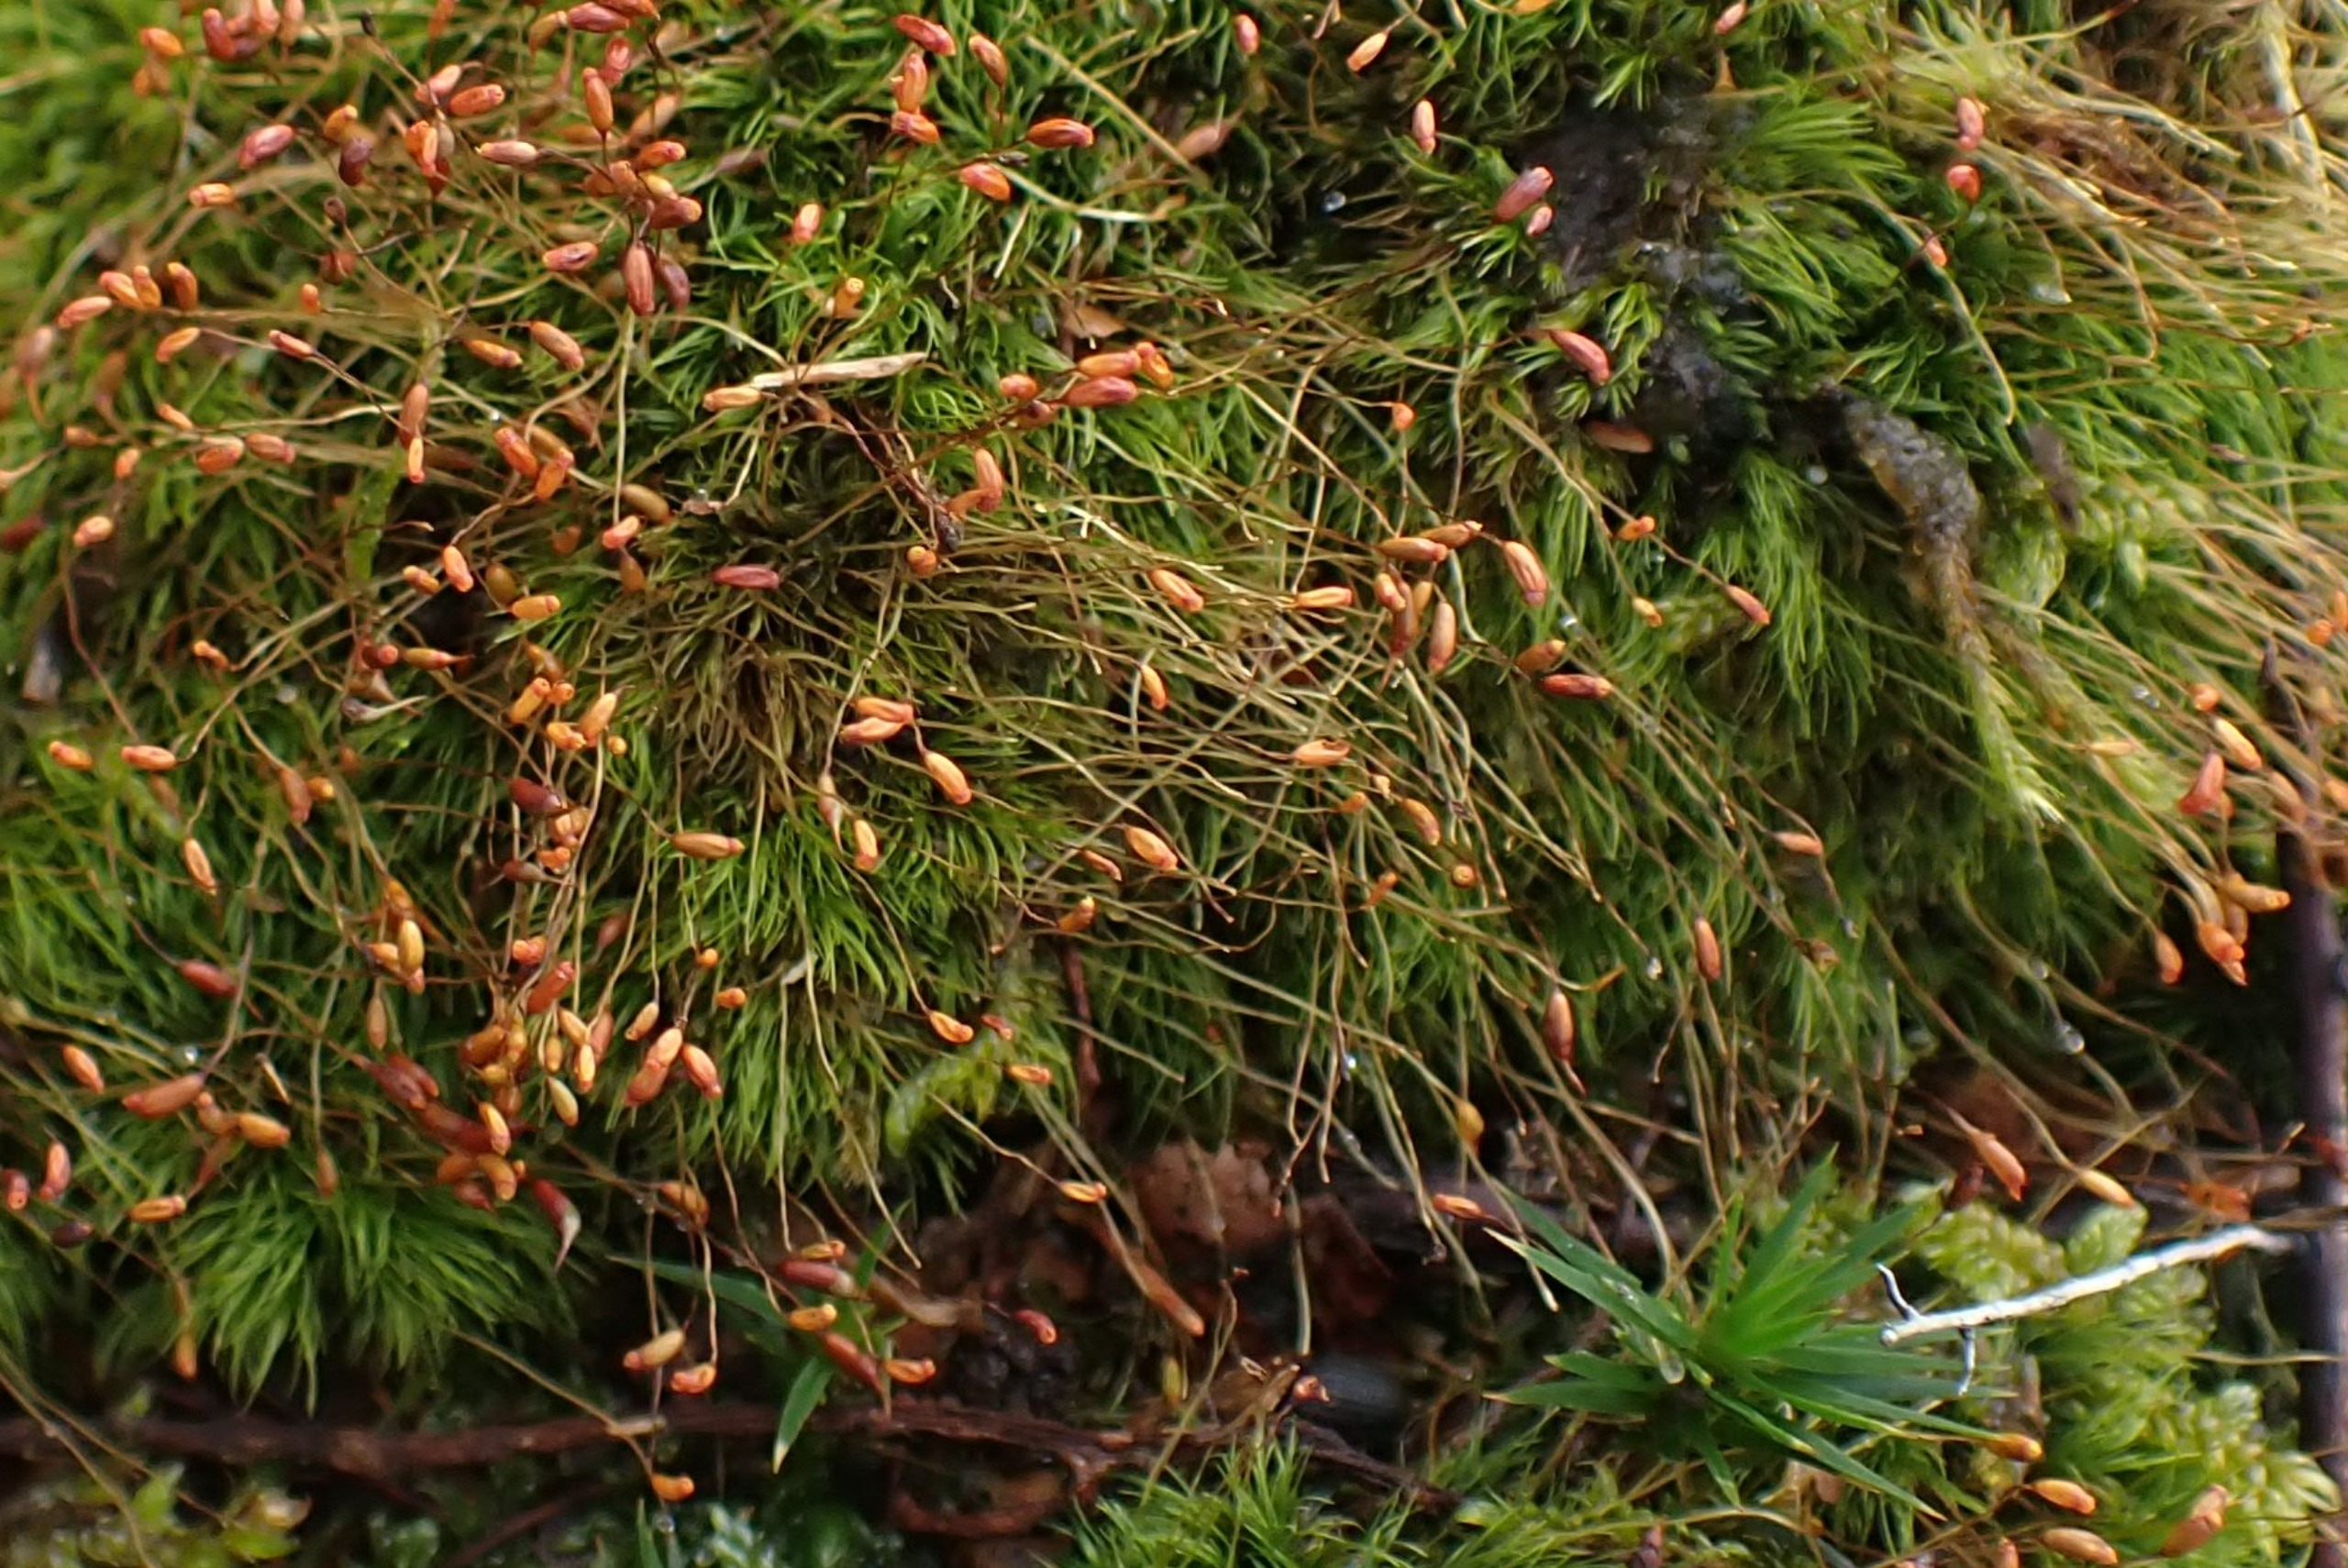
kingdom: Plantae
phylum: Bryophyta
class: Bryopsida
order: Dicranales
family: Dicranellaceae
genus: Dicranella
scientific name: Dicranella heteromalla
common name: Almindelig fløjlsmos
